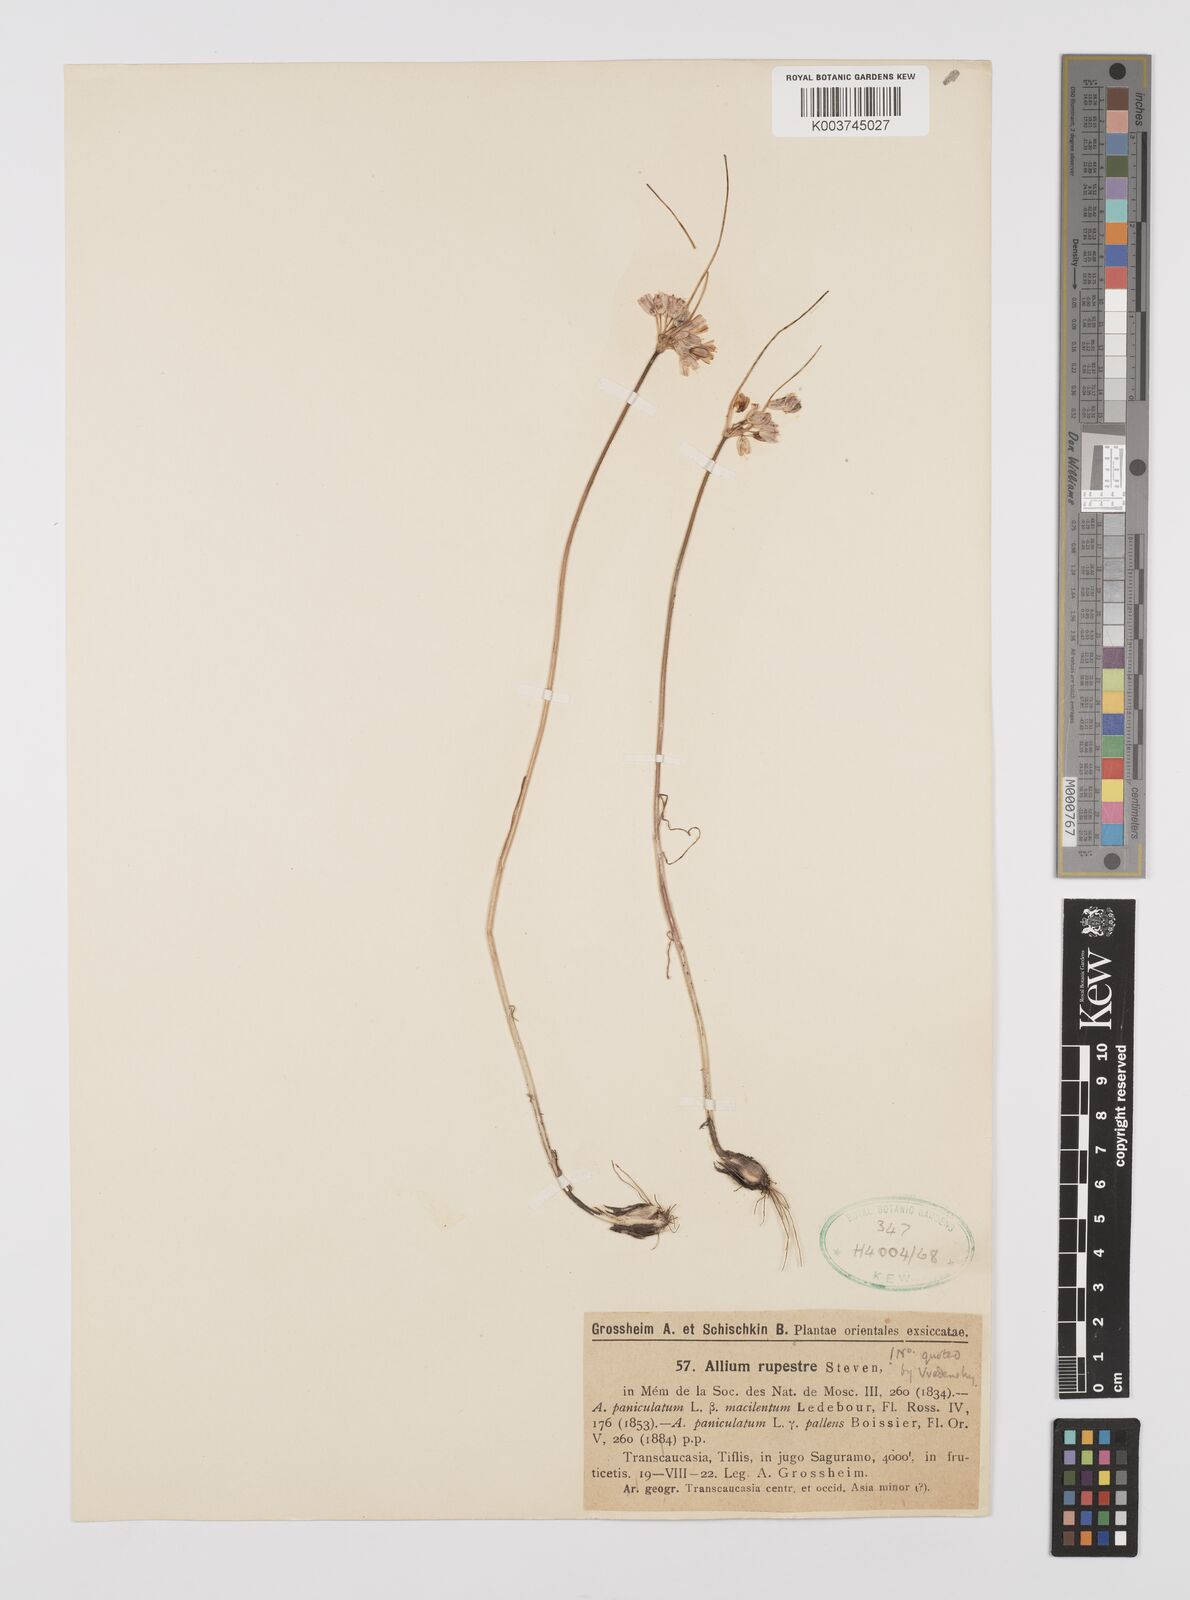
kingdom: Plantae
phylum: Tracheophyta
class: Liliopsida
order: Asparagales
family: Amaryllidaceae
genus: Allium
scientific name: Allium rupestre
